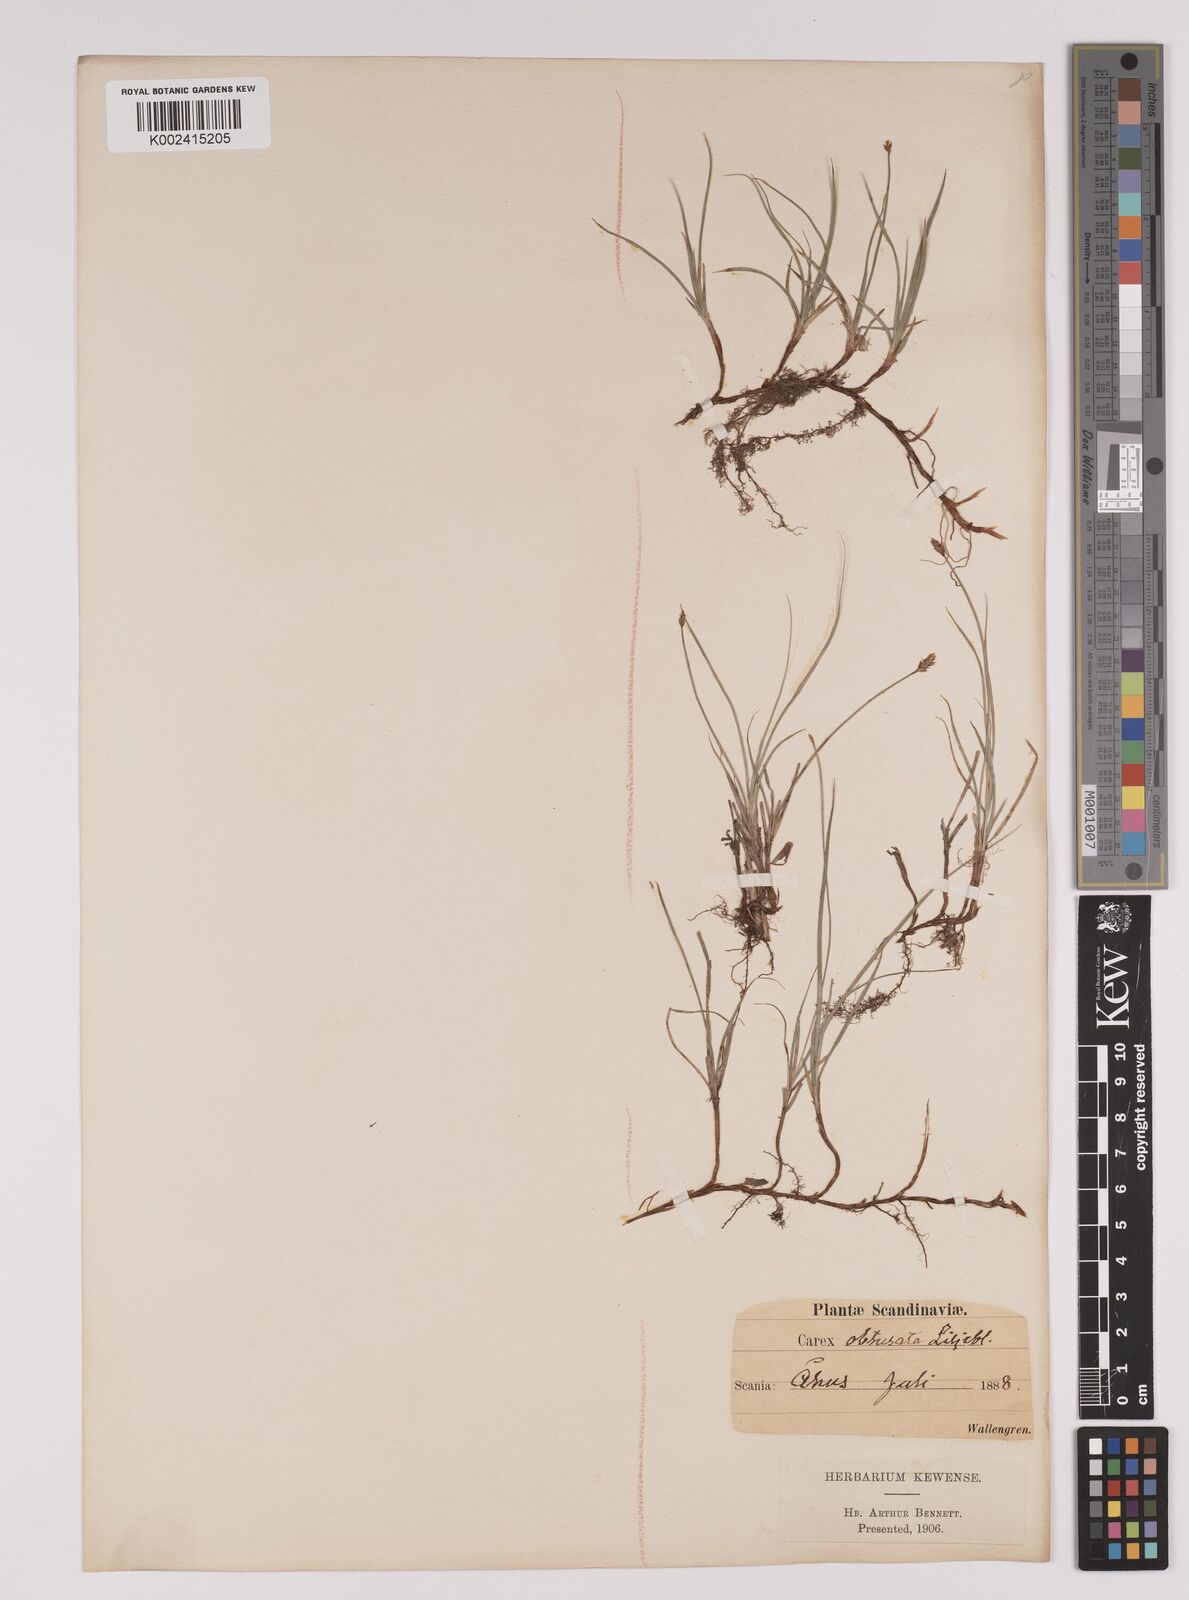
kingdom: Plantae
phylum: Tracheophyta
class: Liliopsida
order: Poales
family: Cyperaceae
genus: Carex
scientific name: Carex obtusata
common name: Blunt sedge
